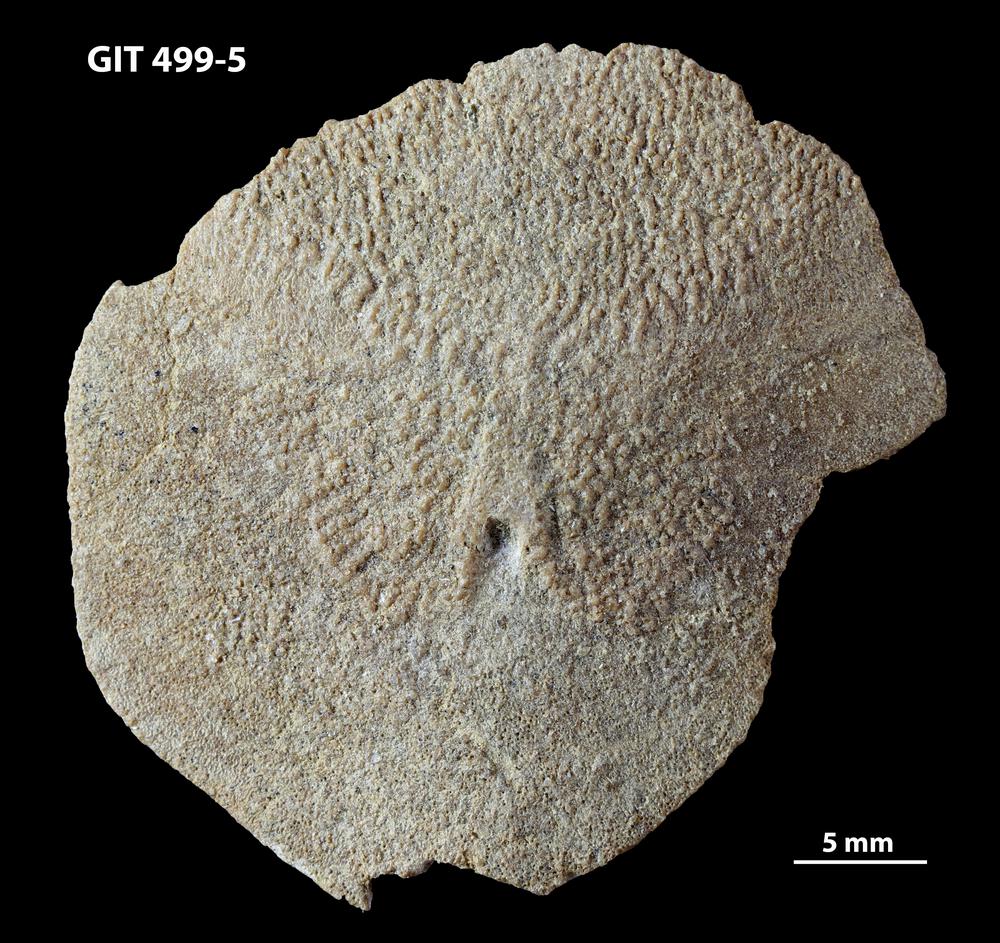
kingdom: Animalia
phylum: Chordata
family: Holoptychiidae
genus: Glyptolepis
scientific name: Glyptolepis
